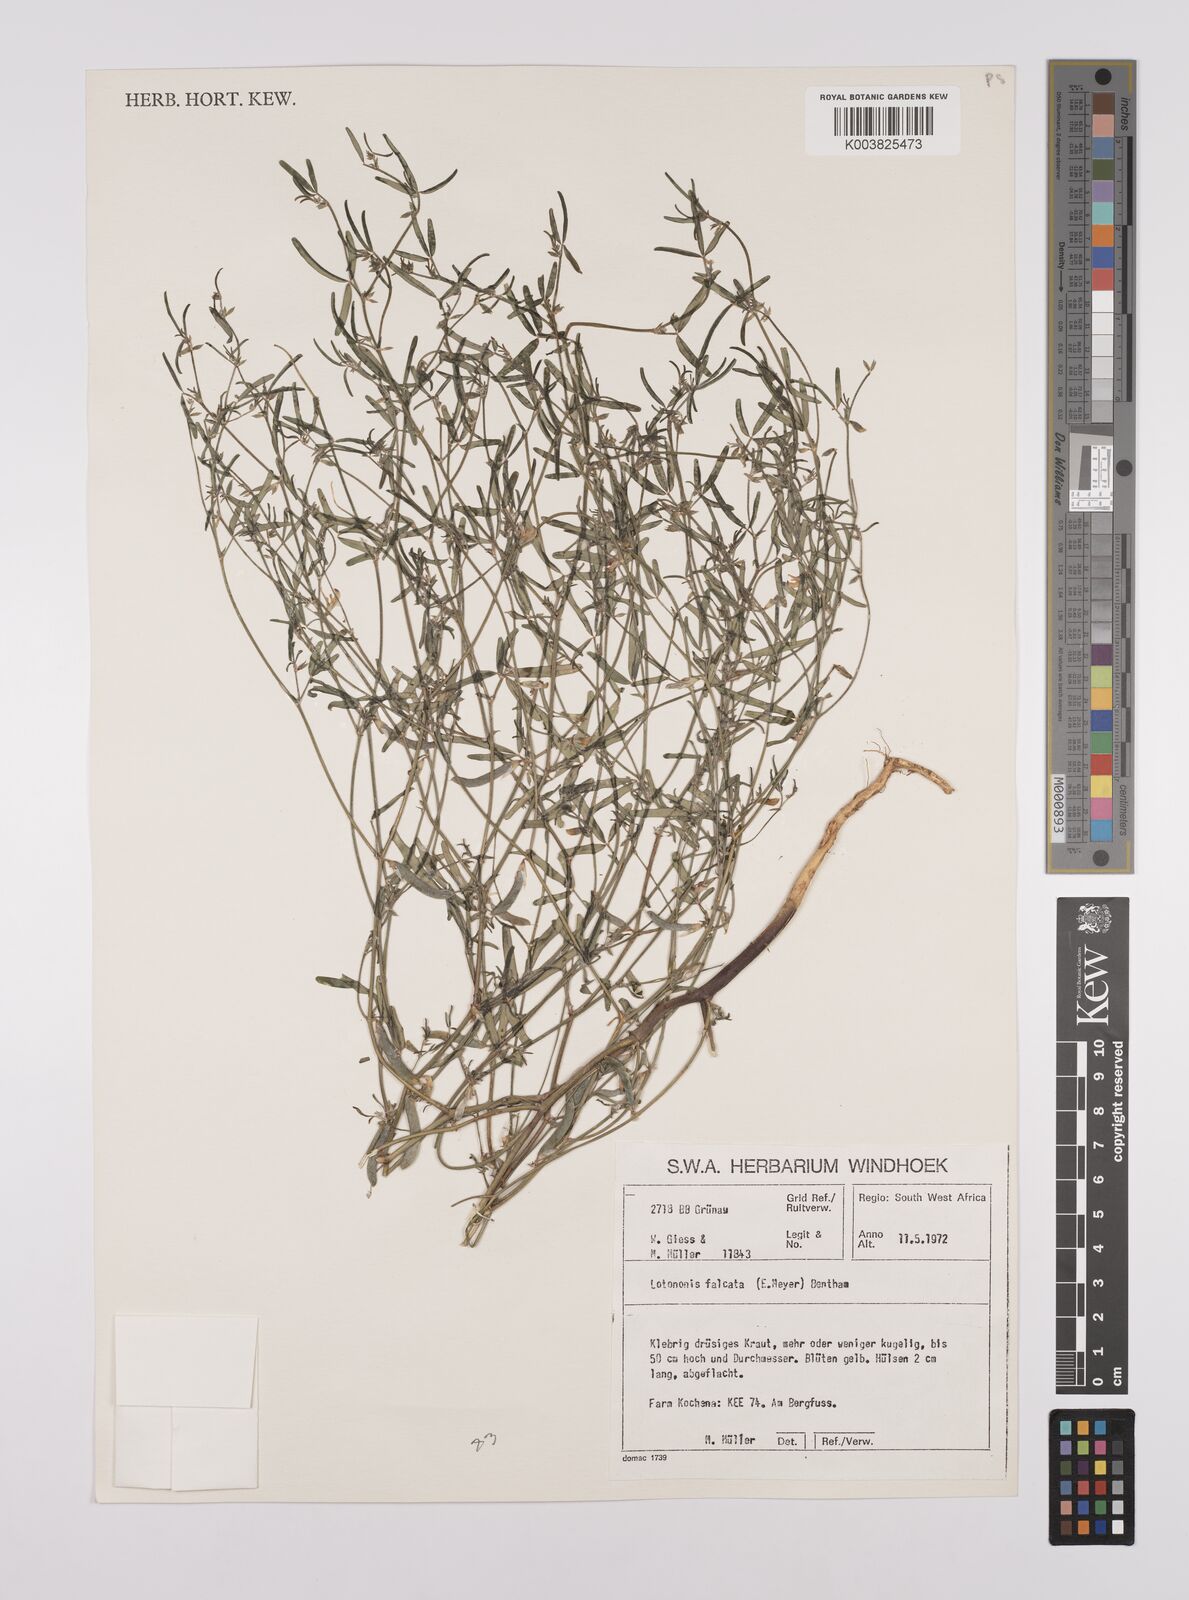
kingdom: Plantae
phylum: Tracheophyta
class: Magnoliopsida
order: Fabales
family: Fabaceae
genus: Lotononis
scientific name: Lotononis falcata
